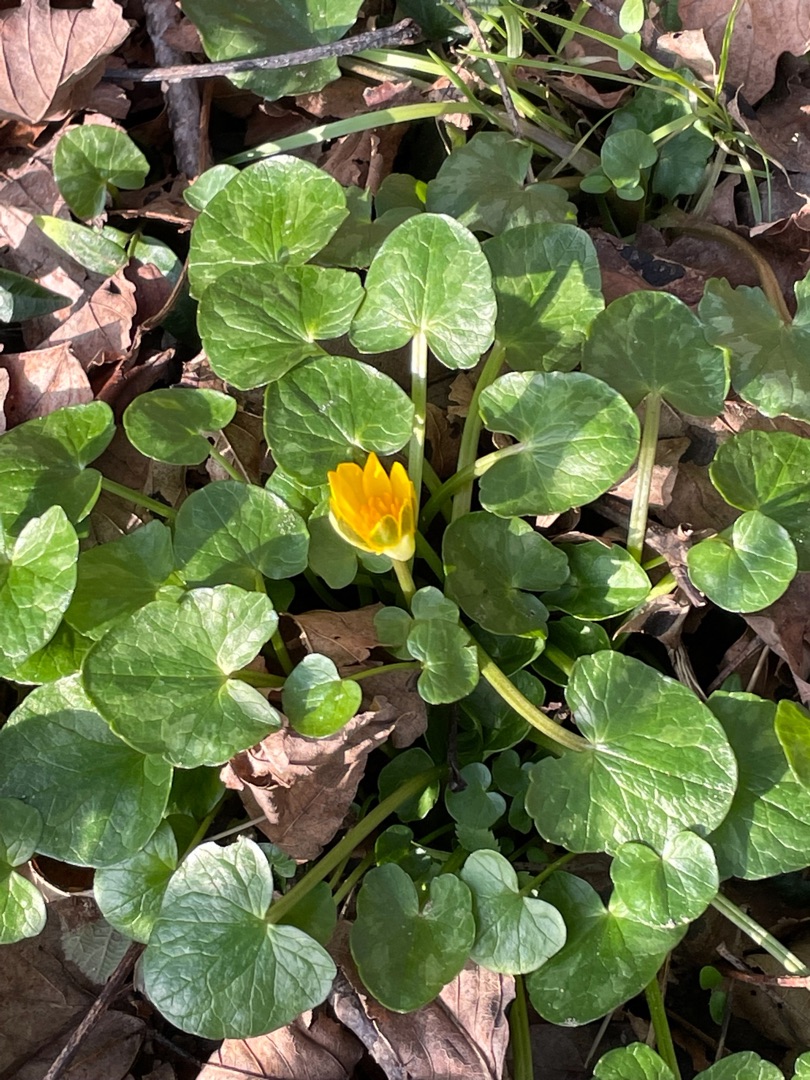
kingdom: Plantae
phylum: Tracheophyta
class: Magnoliopsida
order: Ranunculales
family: Ranunculaceae
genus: Ficaria
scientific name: Ficaria verna
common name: Vorterod
